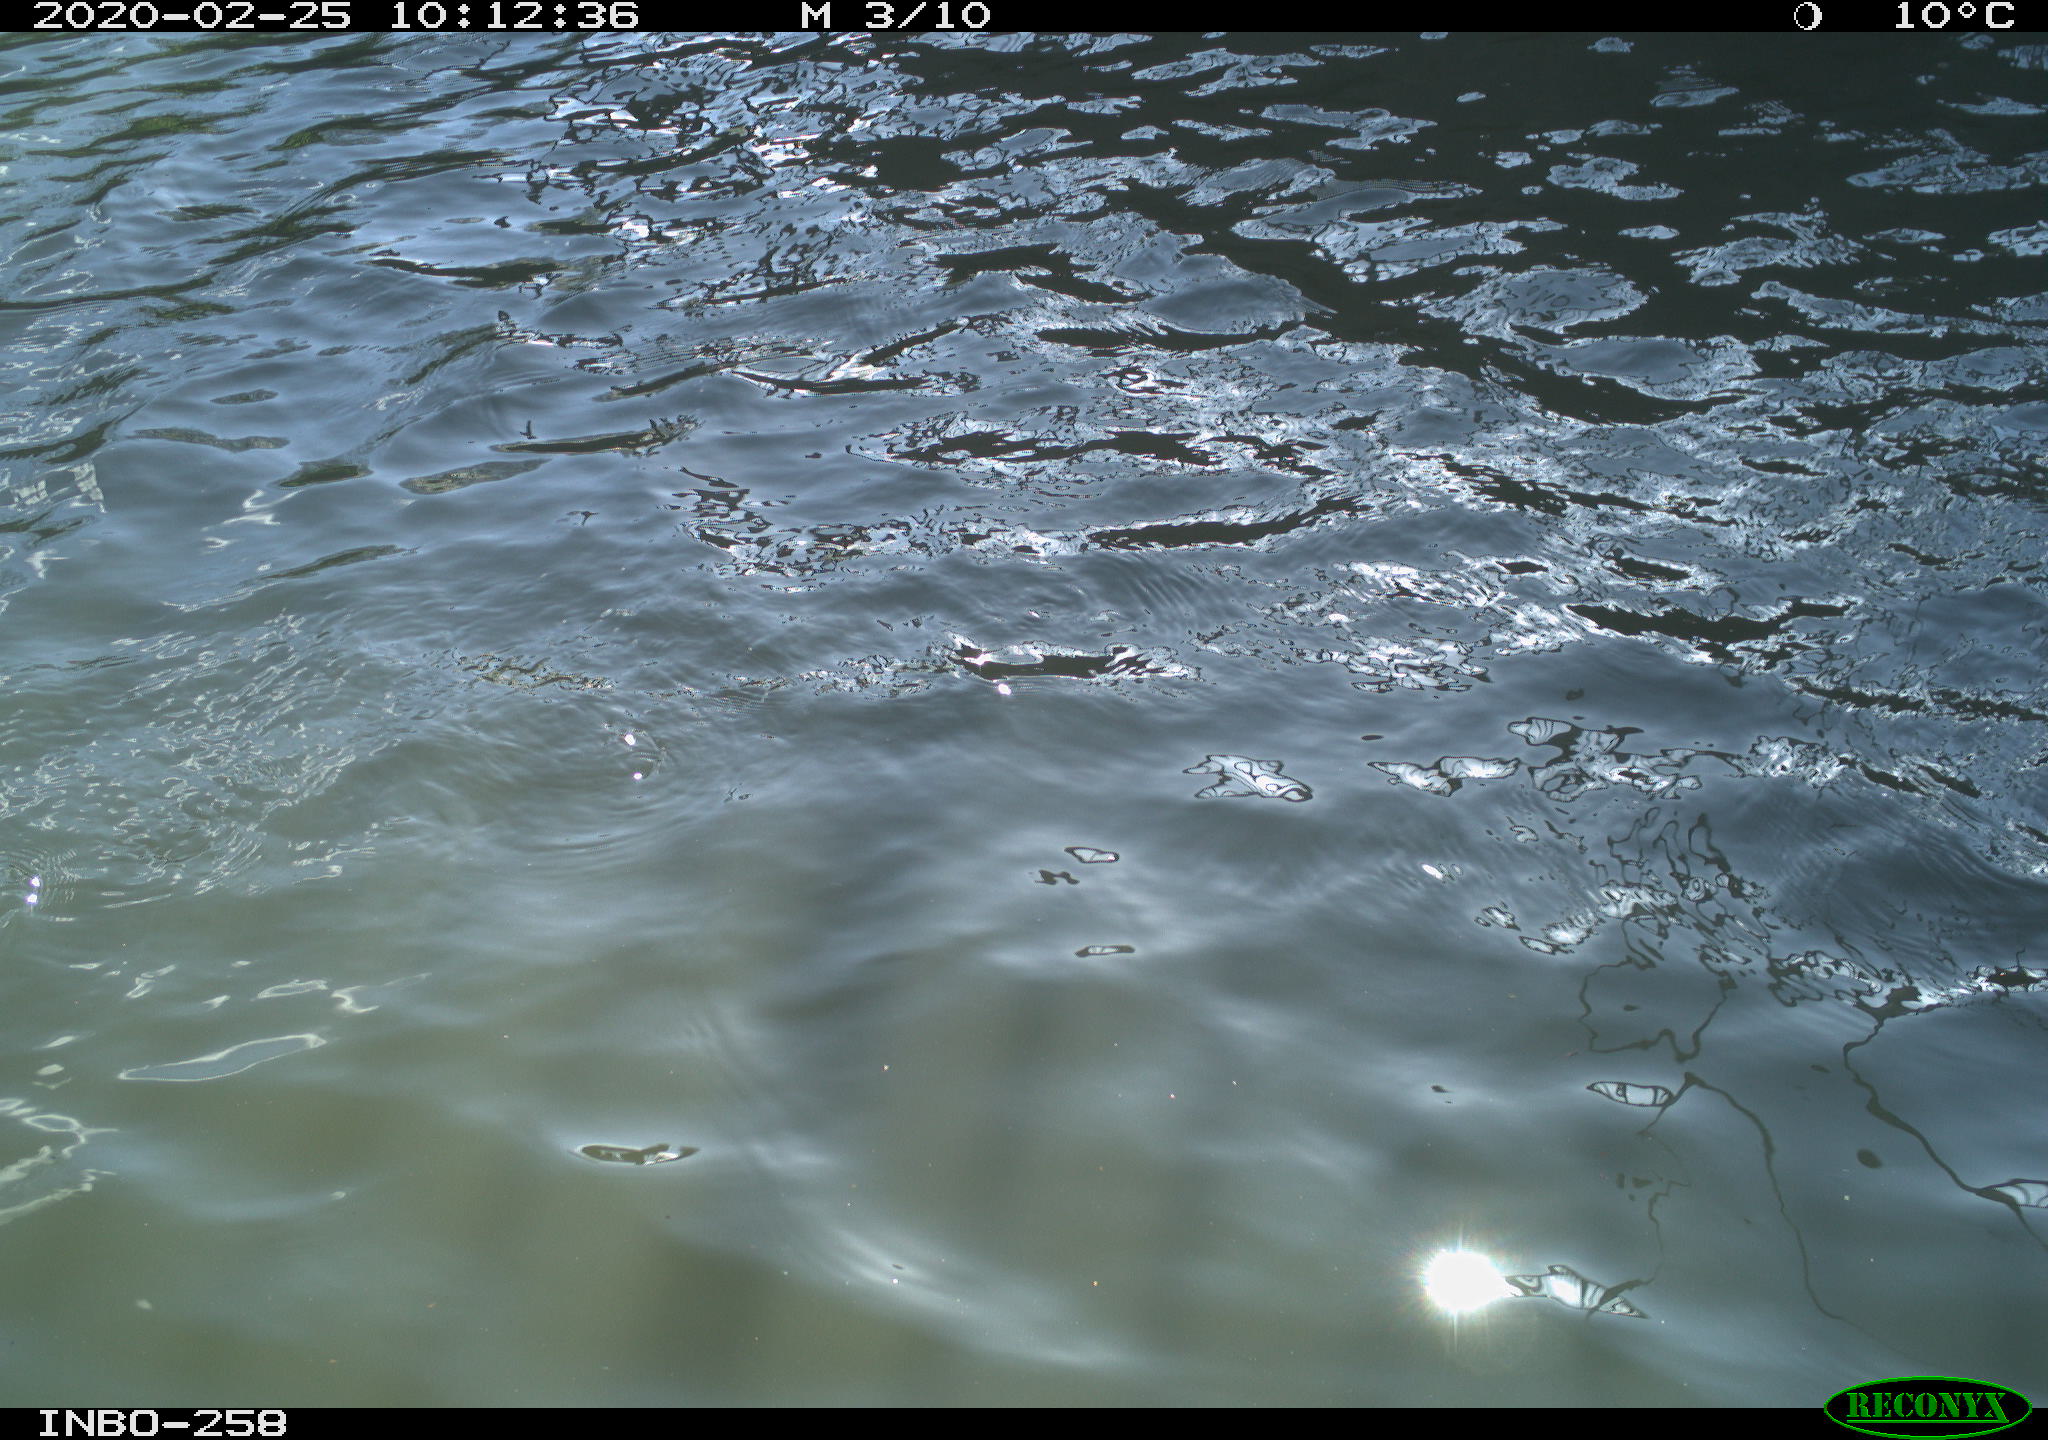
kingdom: Animalia
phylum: Chordata
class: Aves
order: Anseriformes
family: Anatidae
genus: Anas
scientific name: Anas platyrhynchos
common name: Mallard
